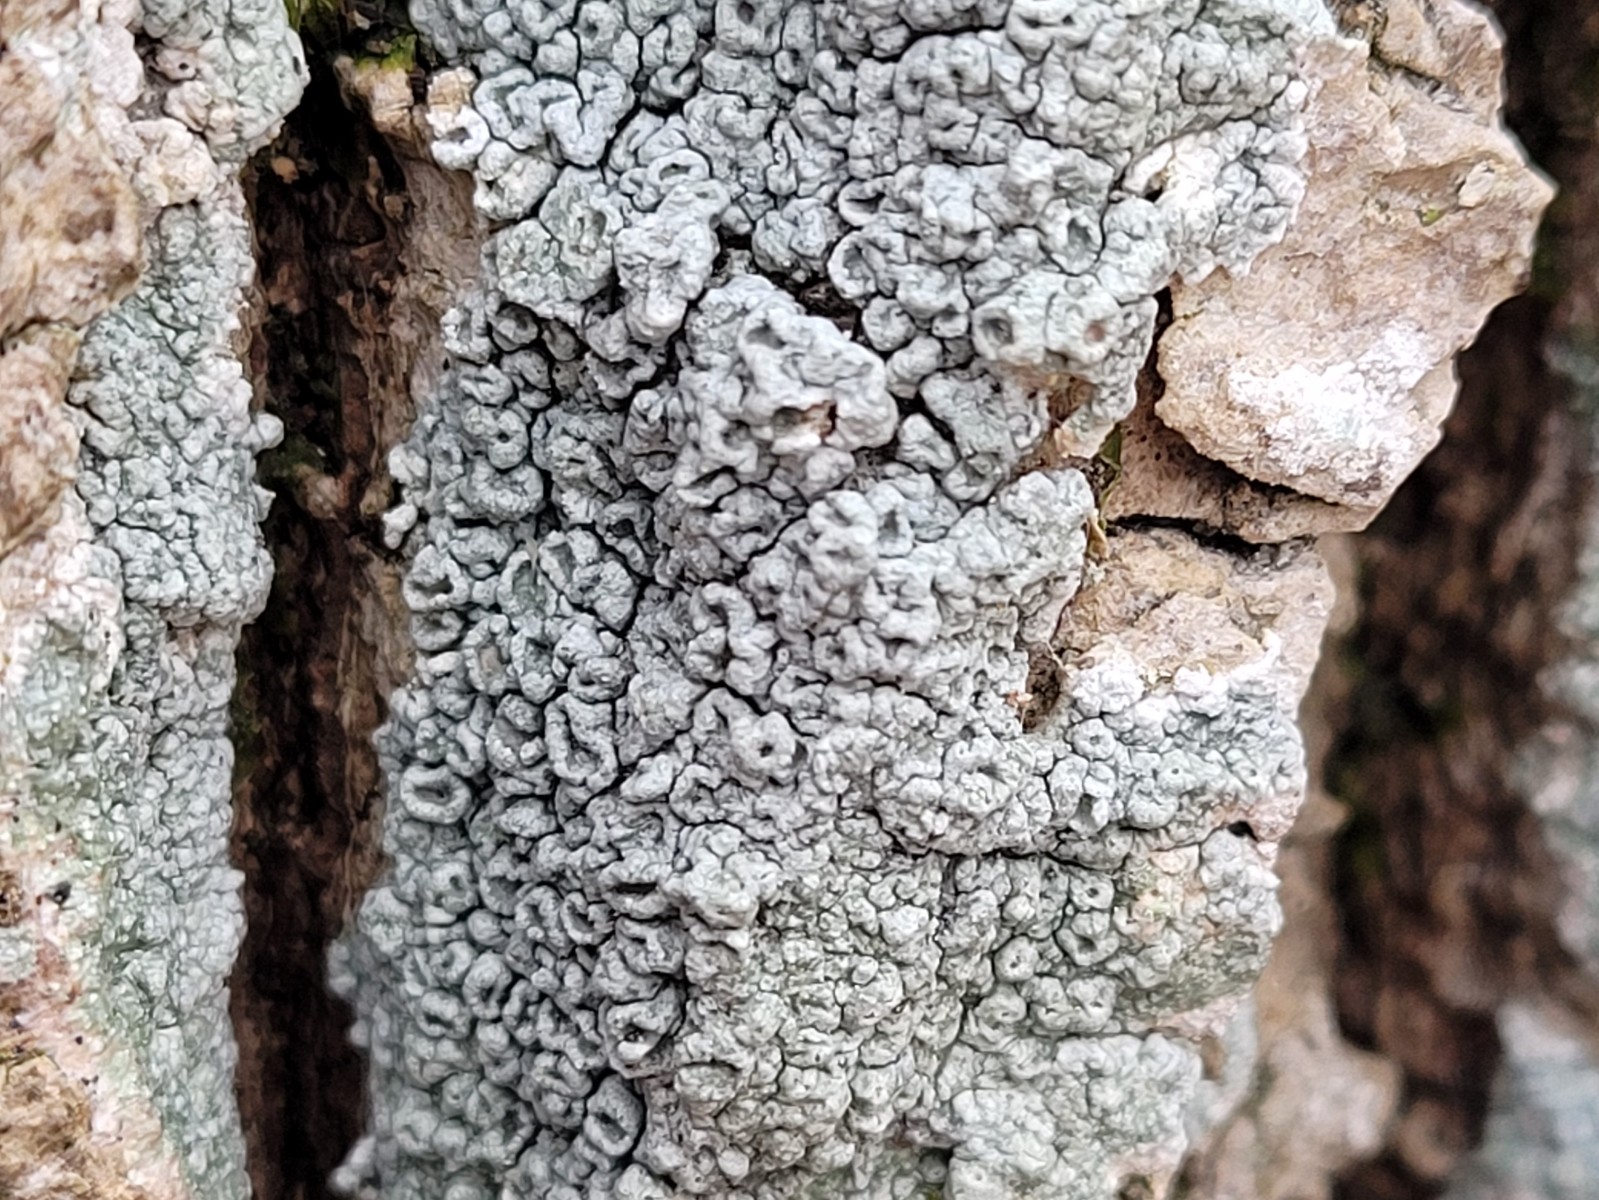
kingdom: Fungi
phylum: Ascomycota
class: Lecanoromycetes
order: Pertusariales
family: Pertusariaceae
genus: Pertusaria
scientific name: Pertusaria hymenea
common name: åben prikvortelav
